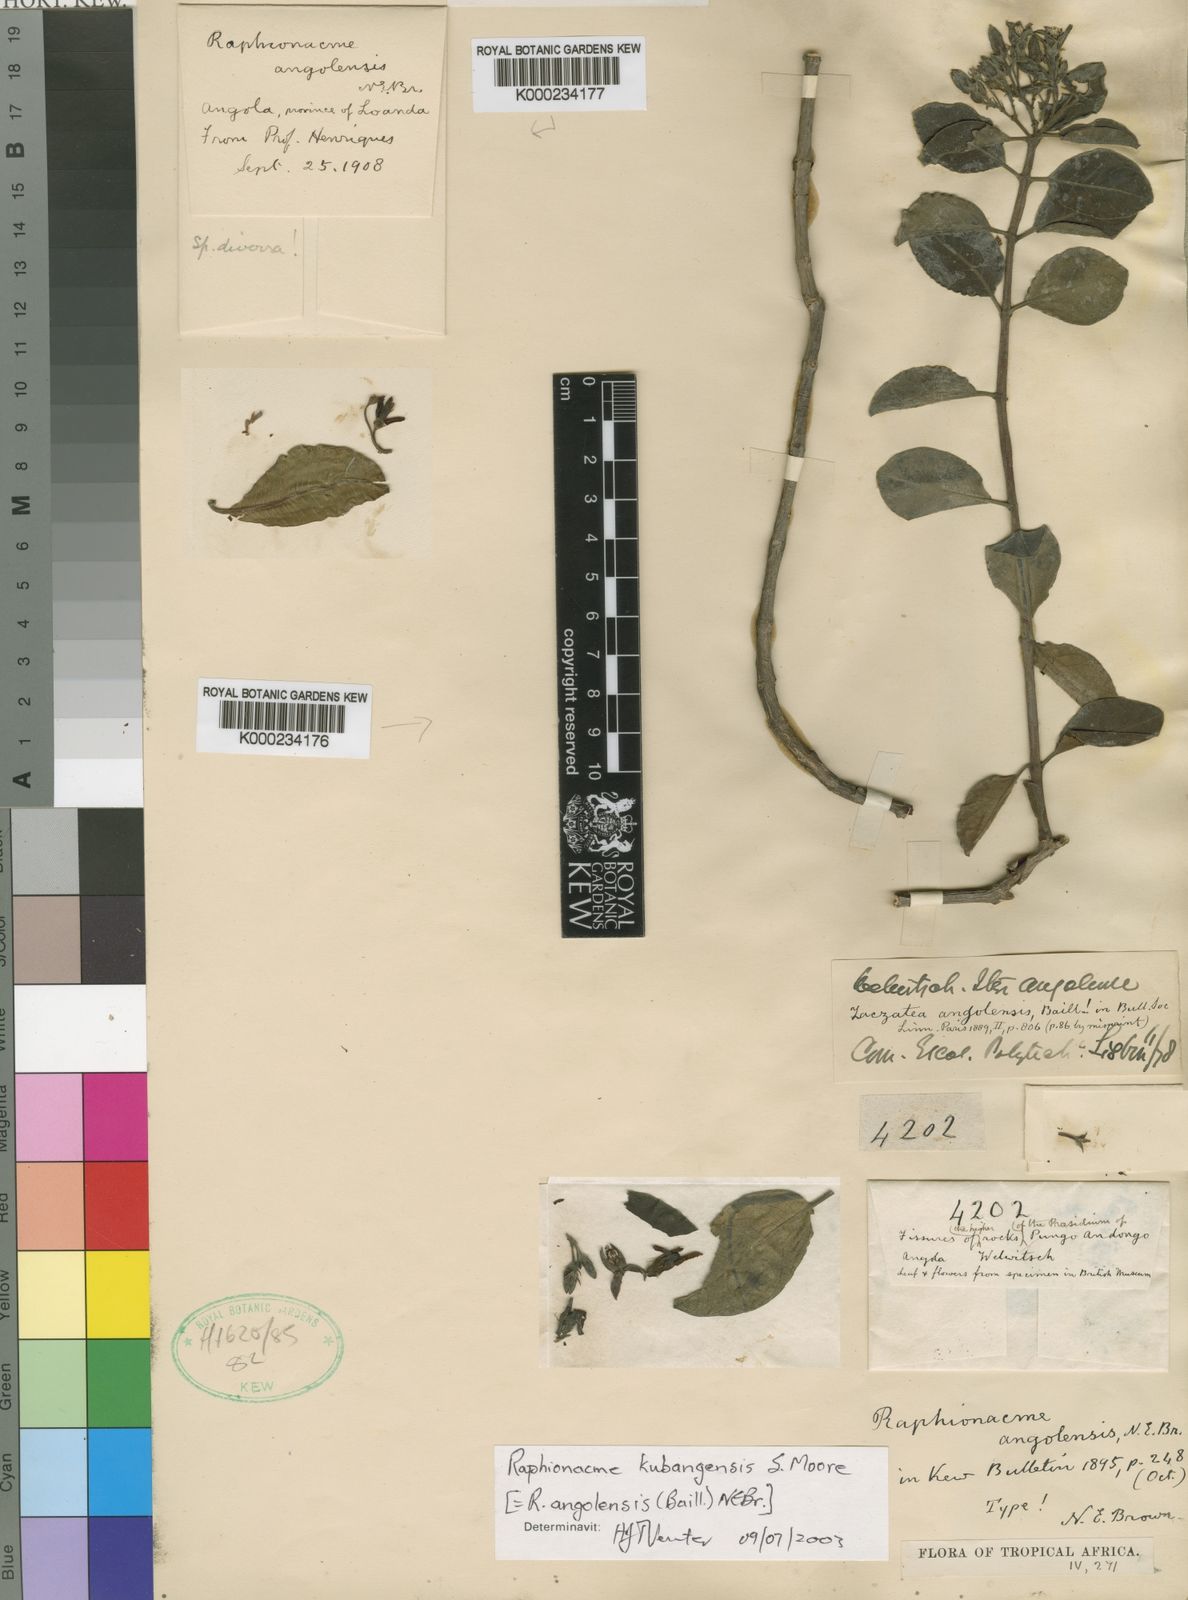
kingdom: Plantae
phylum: Tracheophyta
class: Magnoliopsida
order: Gentianales
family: Apocynaceae
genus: Raphionacme
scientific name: Raphionacme angolensis
